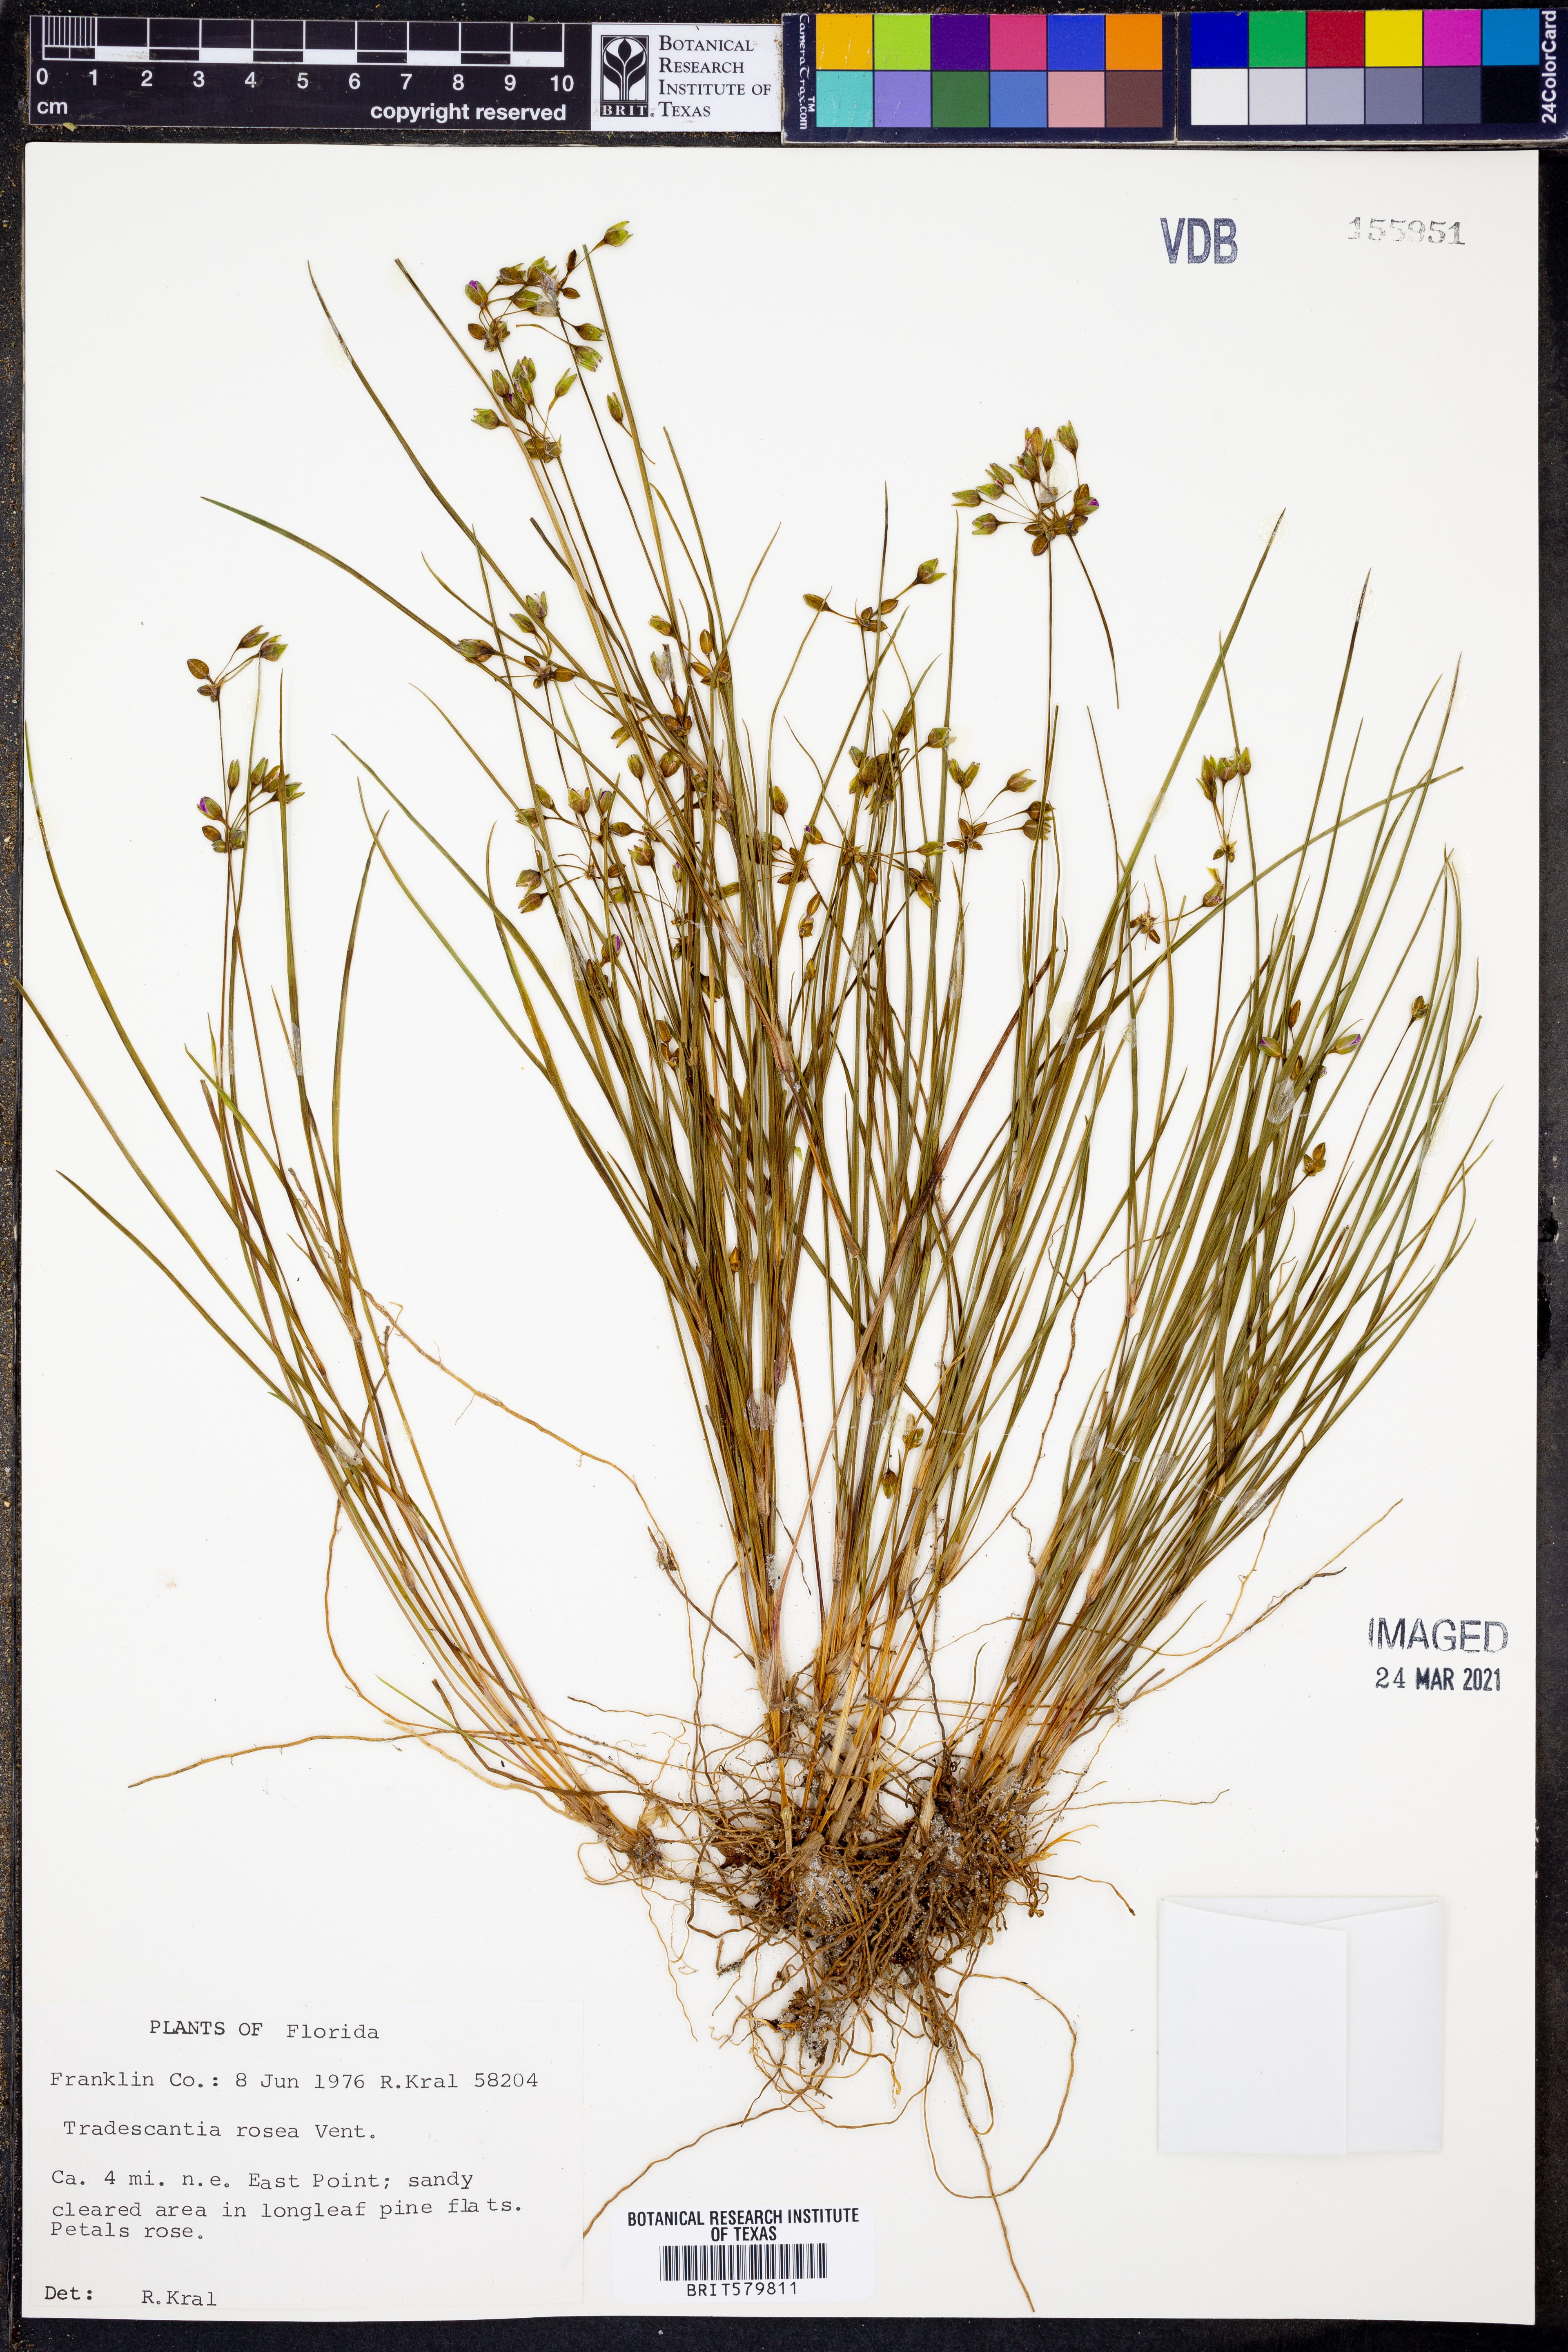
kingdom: Plantae
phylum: Tracheophyta
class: Liliopsida
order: Commelinales
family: Commelinaceae
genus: Callisia
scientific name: Callisia rosea
